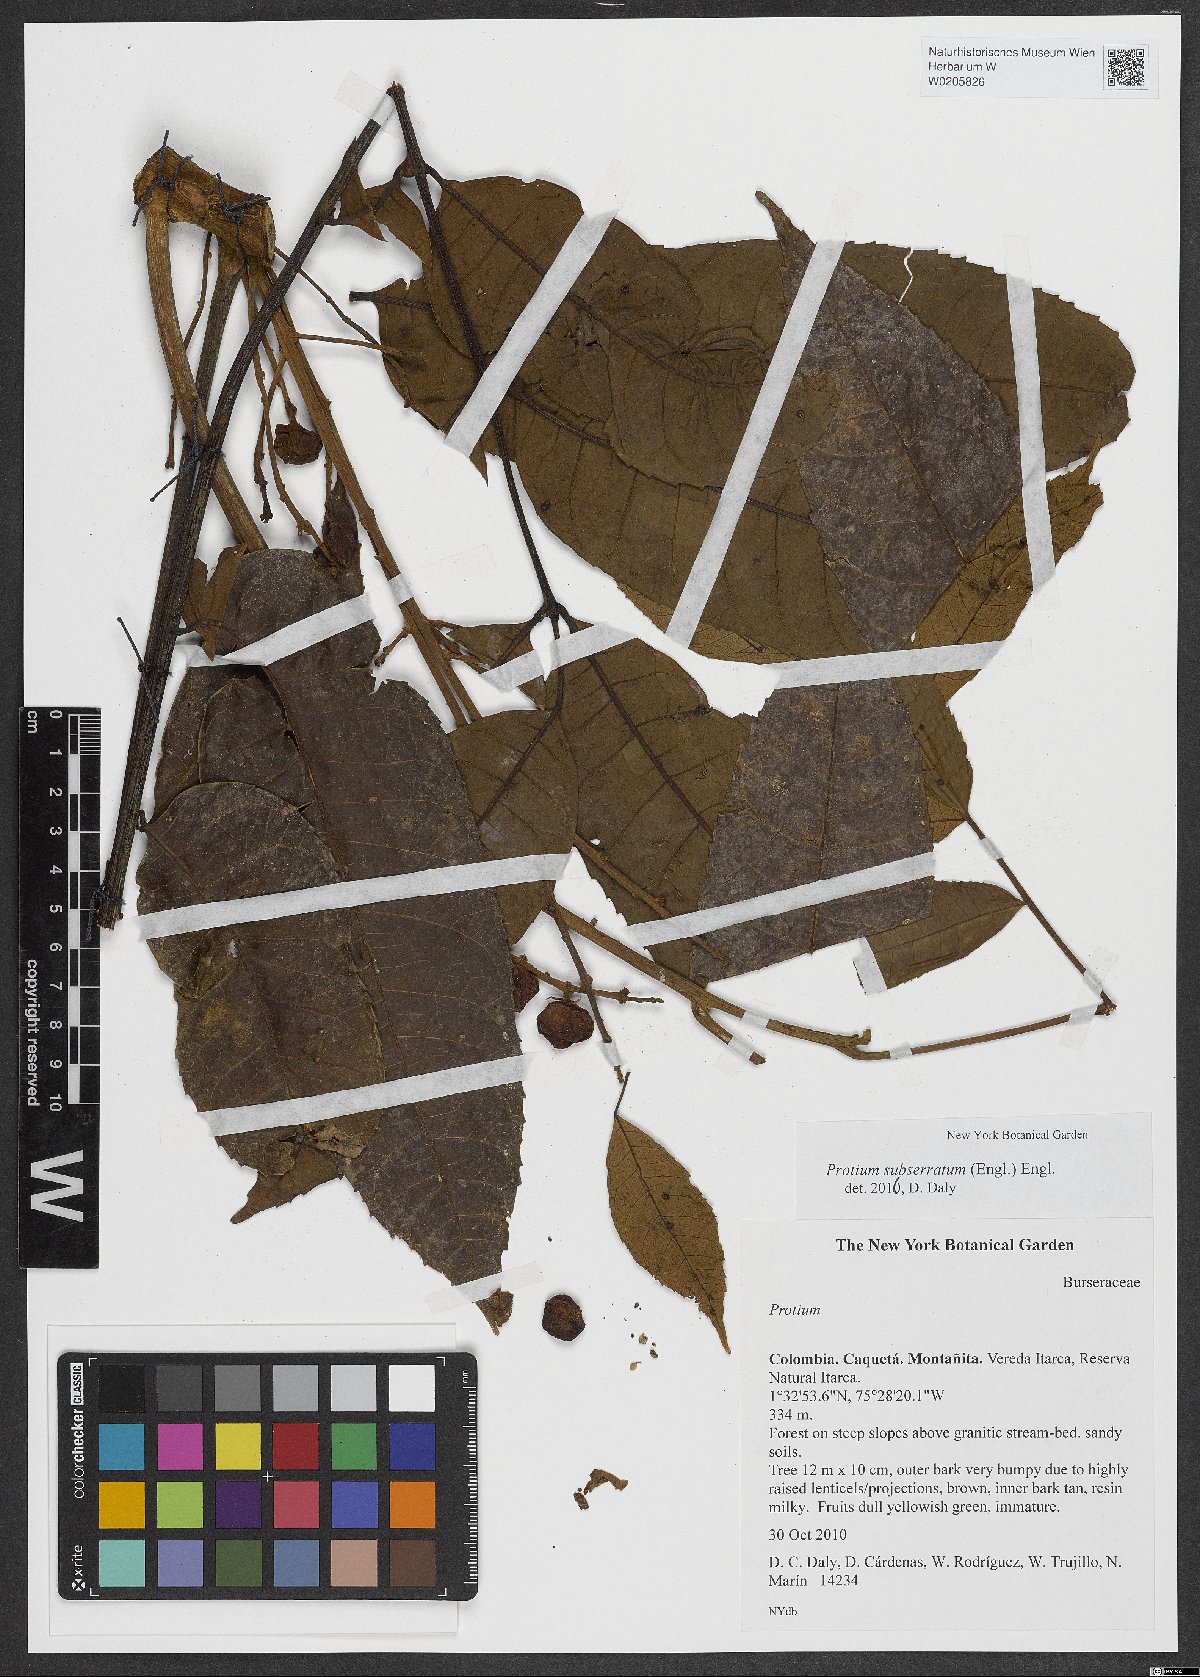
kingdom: Plantae
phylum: Tracheophyta
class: Magnoliopsida
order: Sapindales
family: Burseraceae
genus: Protium
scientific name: Protium subserratum
